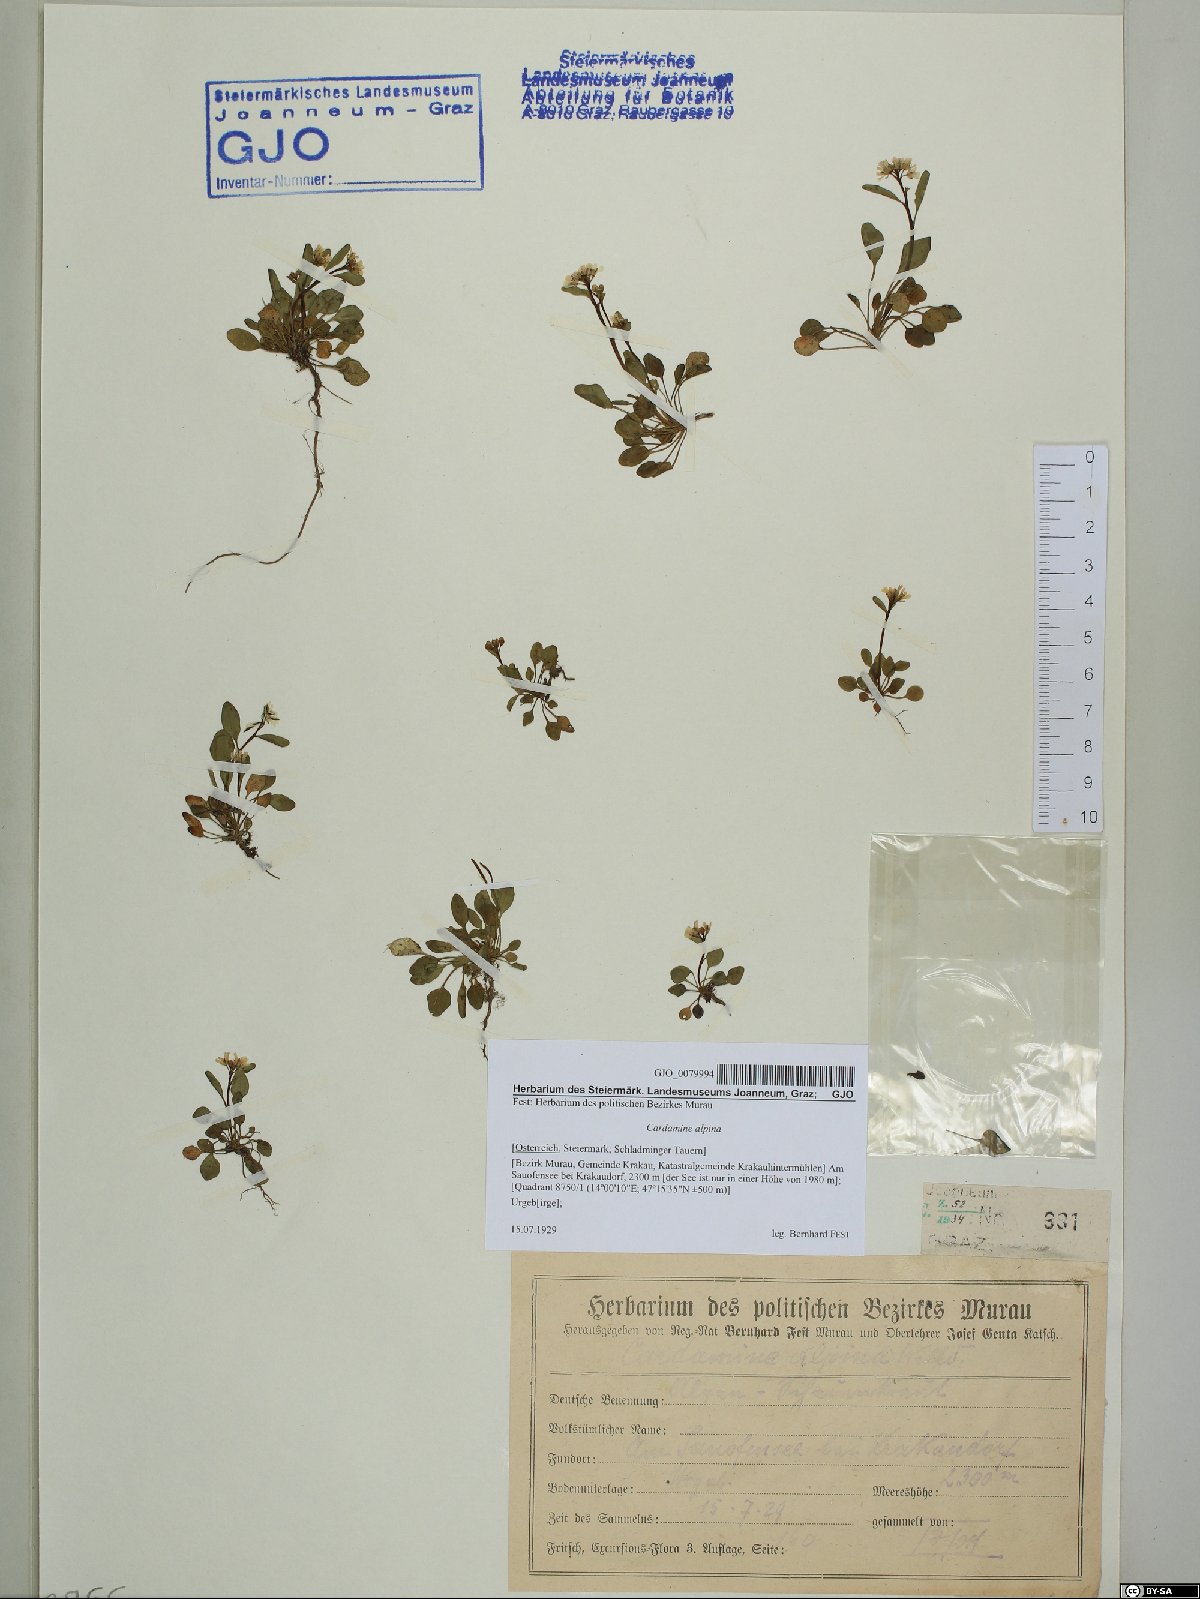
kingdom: Plantae
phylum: Tracheophyta
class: Magnoliopsida
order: Brassicales
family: Brassicaceae
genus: Cardamine
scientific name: Cardamine bellidifolia
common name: Alpine bittercress
